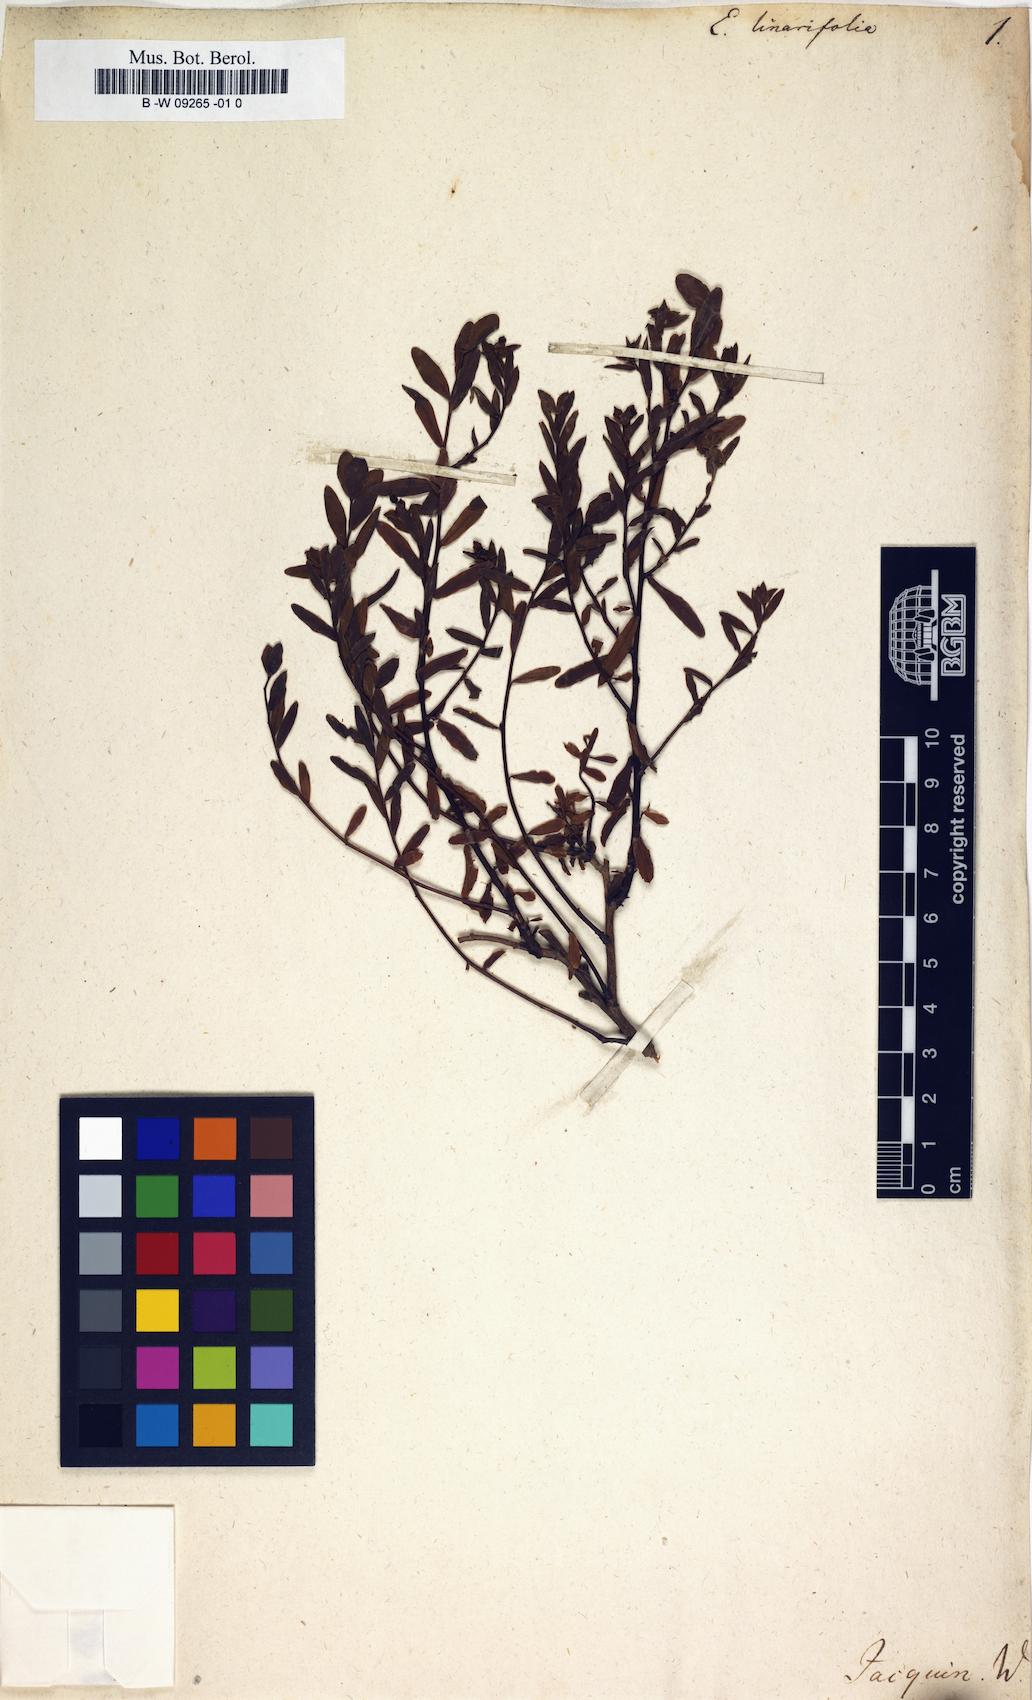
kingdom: Plantae
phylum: Tracheophyta
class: Magnoliopsida
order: Malpighiales
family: Euphorbiaceae
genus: Euphorbia
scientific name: Euphorbia linariifolia
